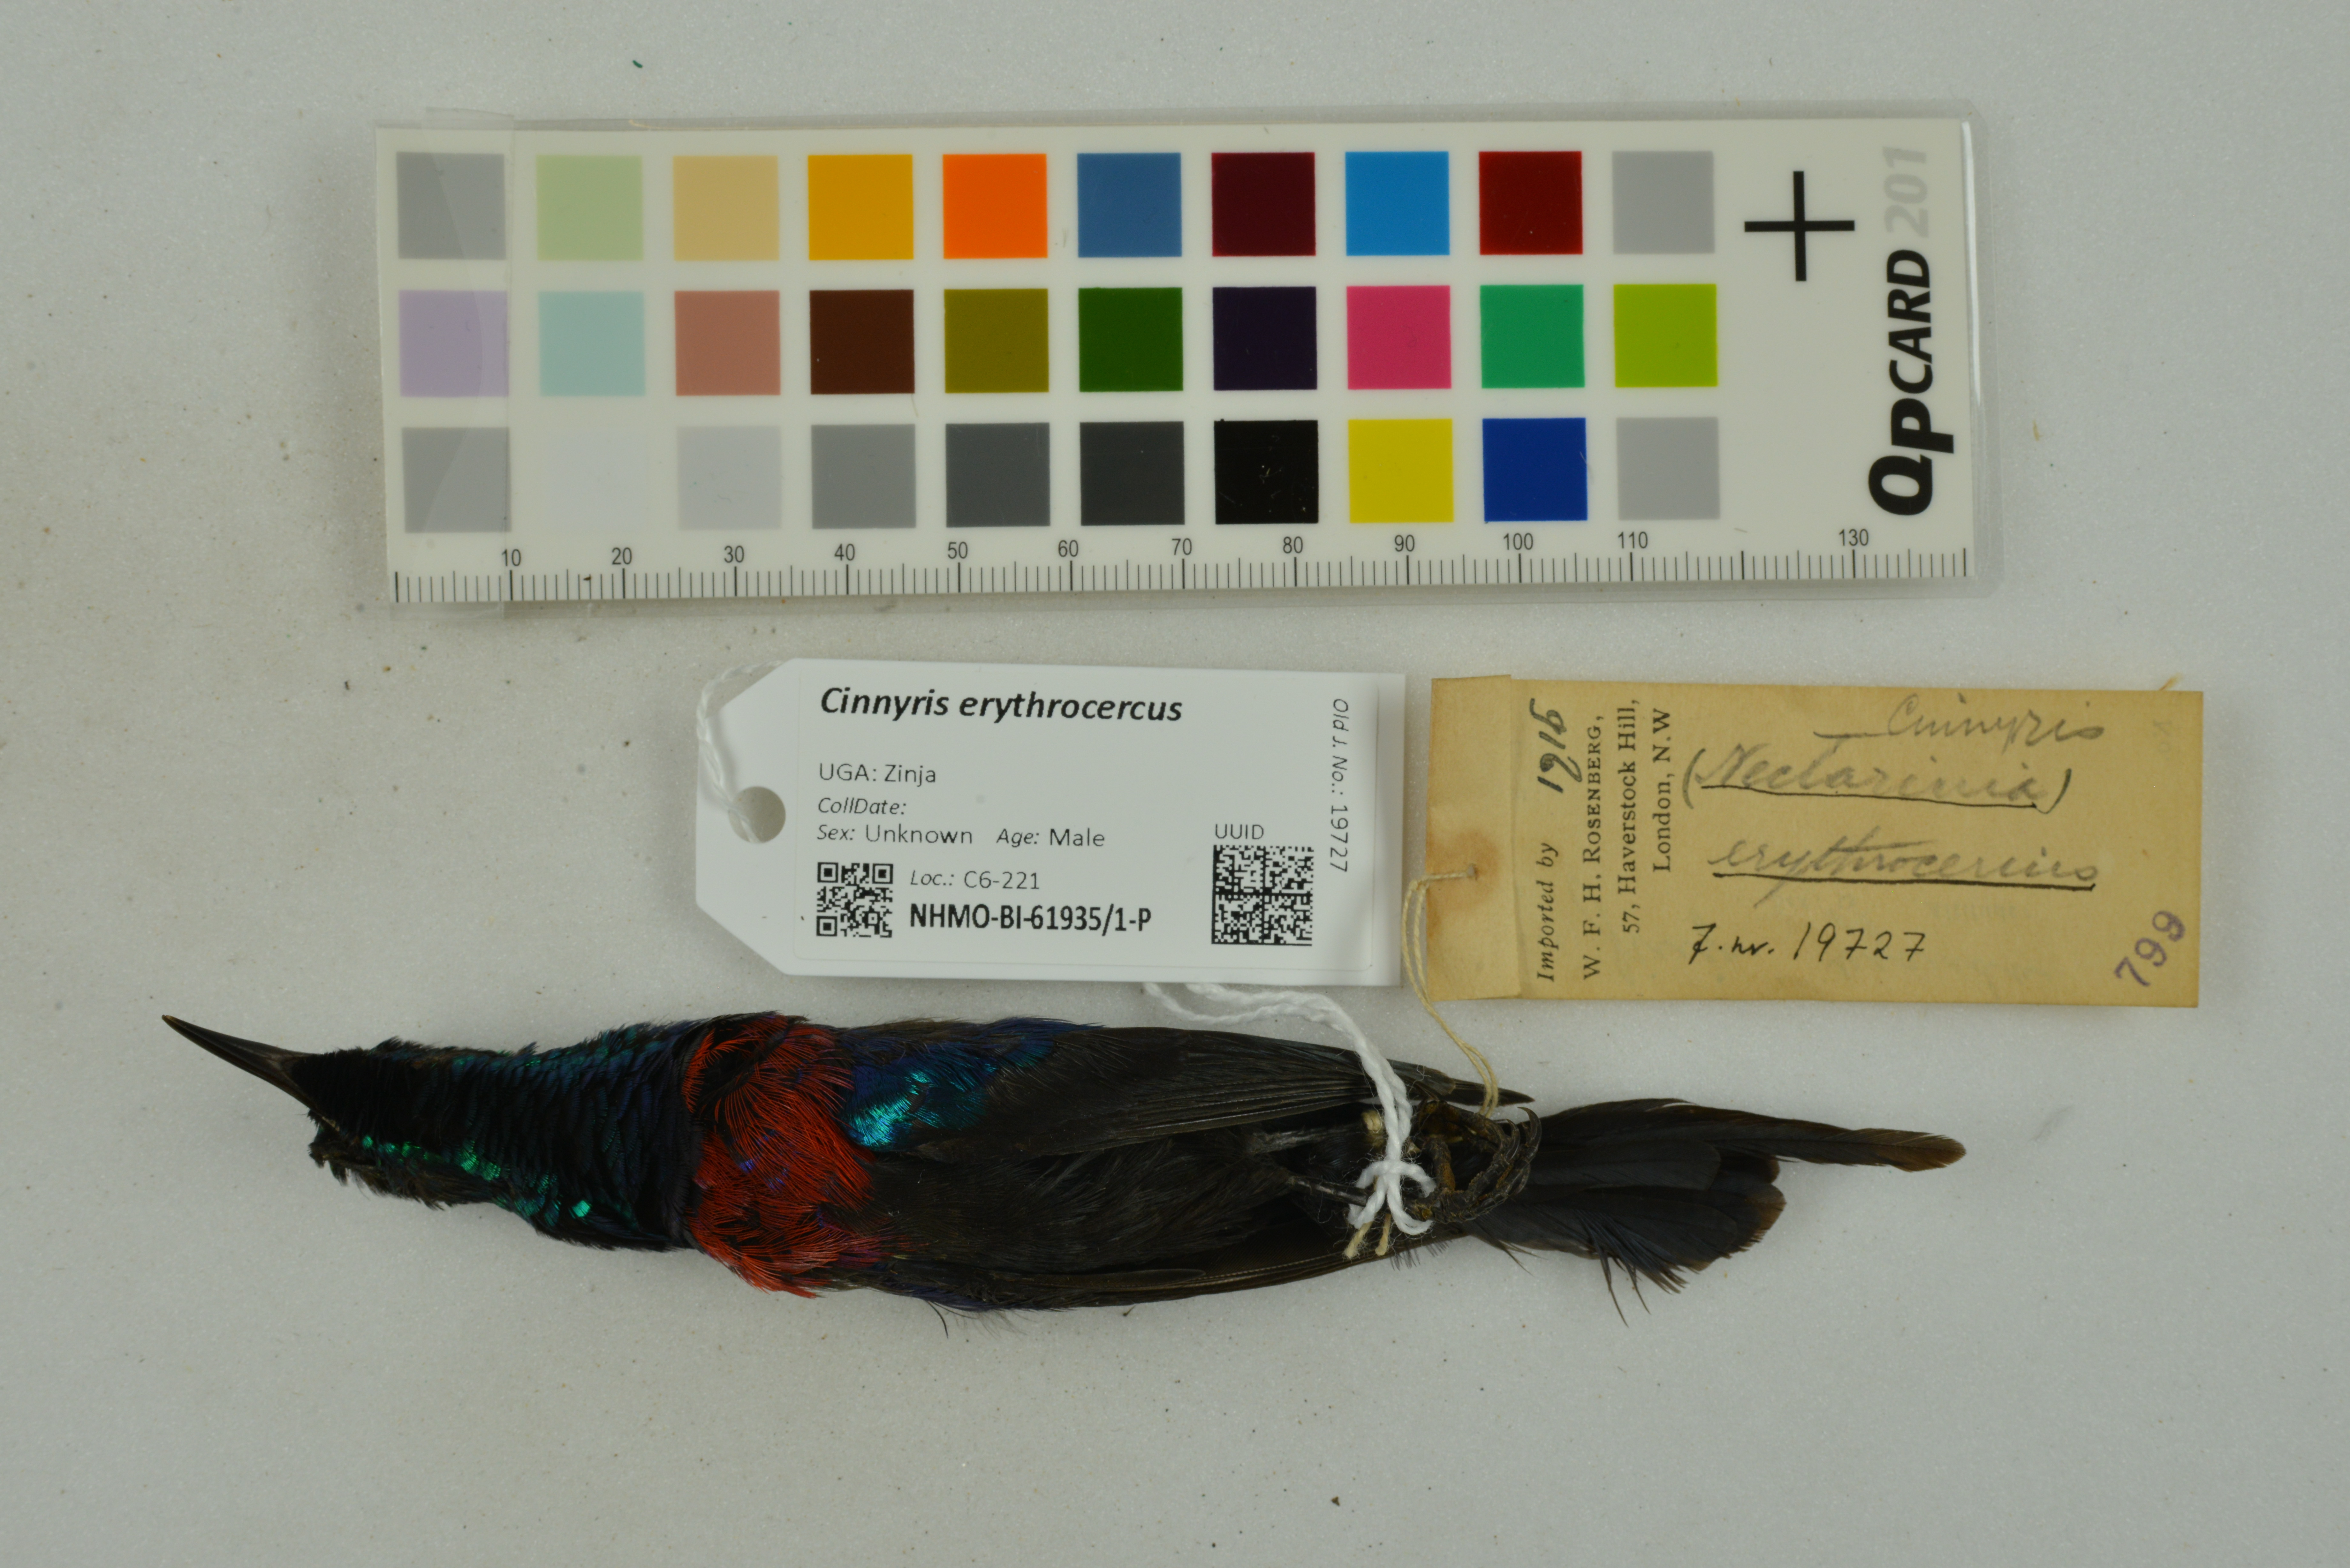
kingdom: Animalia
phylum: Chordata
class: Aves
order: Passeriformes
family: Nectariniidae
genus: Cinnyris
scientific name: Cinnyris erythrocercus
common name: Red-chested sunbird
